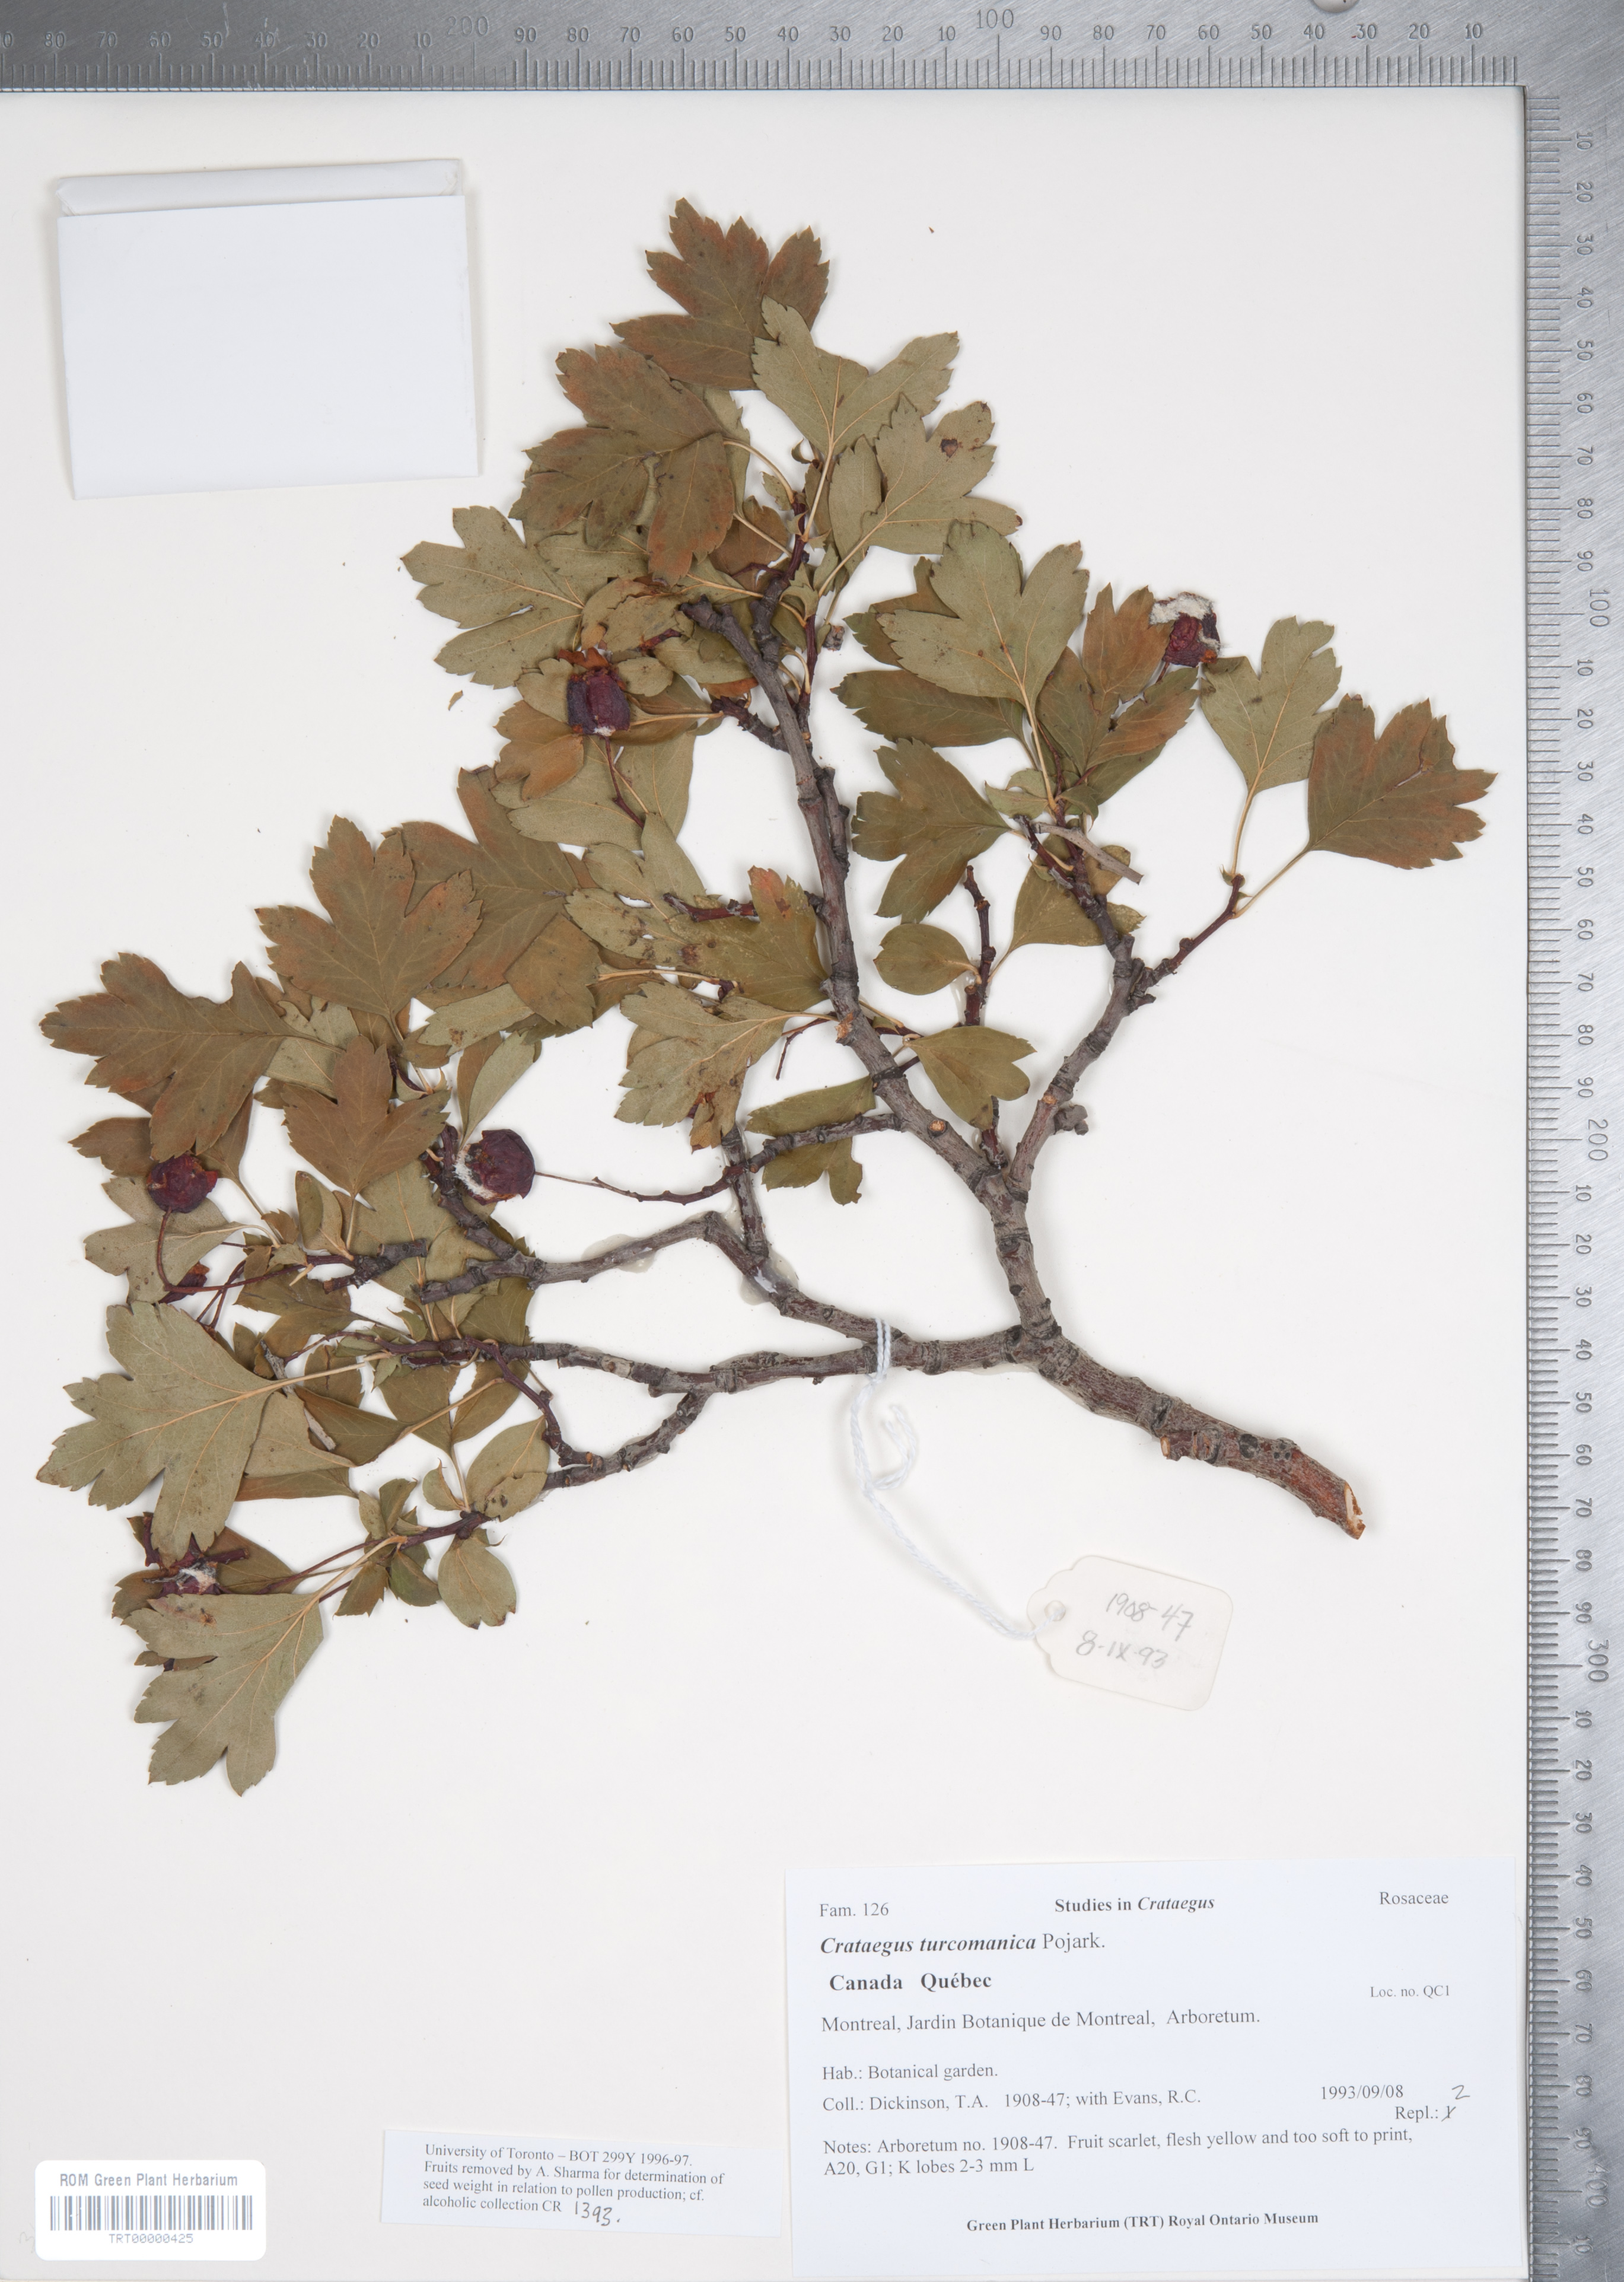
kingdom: Plantae
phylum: Tracheophyta
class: Magnoliopsida
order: Rosales
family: Rosaceae
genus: Crataegus
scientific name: Crataegus pseudoheterophylla
